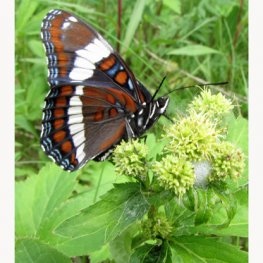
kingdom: Animalia
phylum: Arthropoda
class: Insecta
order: Lepidoptera
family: Nymphalidae
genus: Limenitis
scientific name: Limenitis arthemis
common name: Red-spotted Admiral
